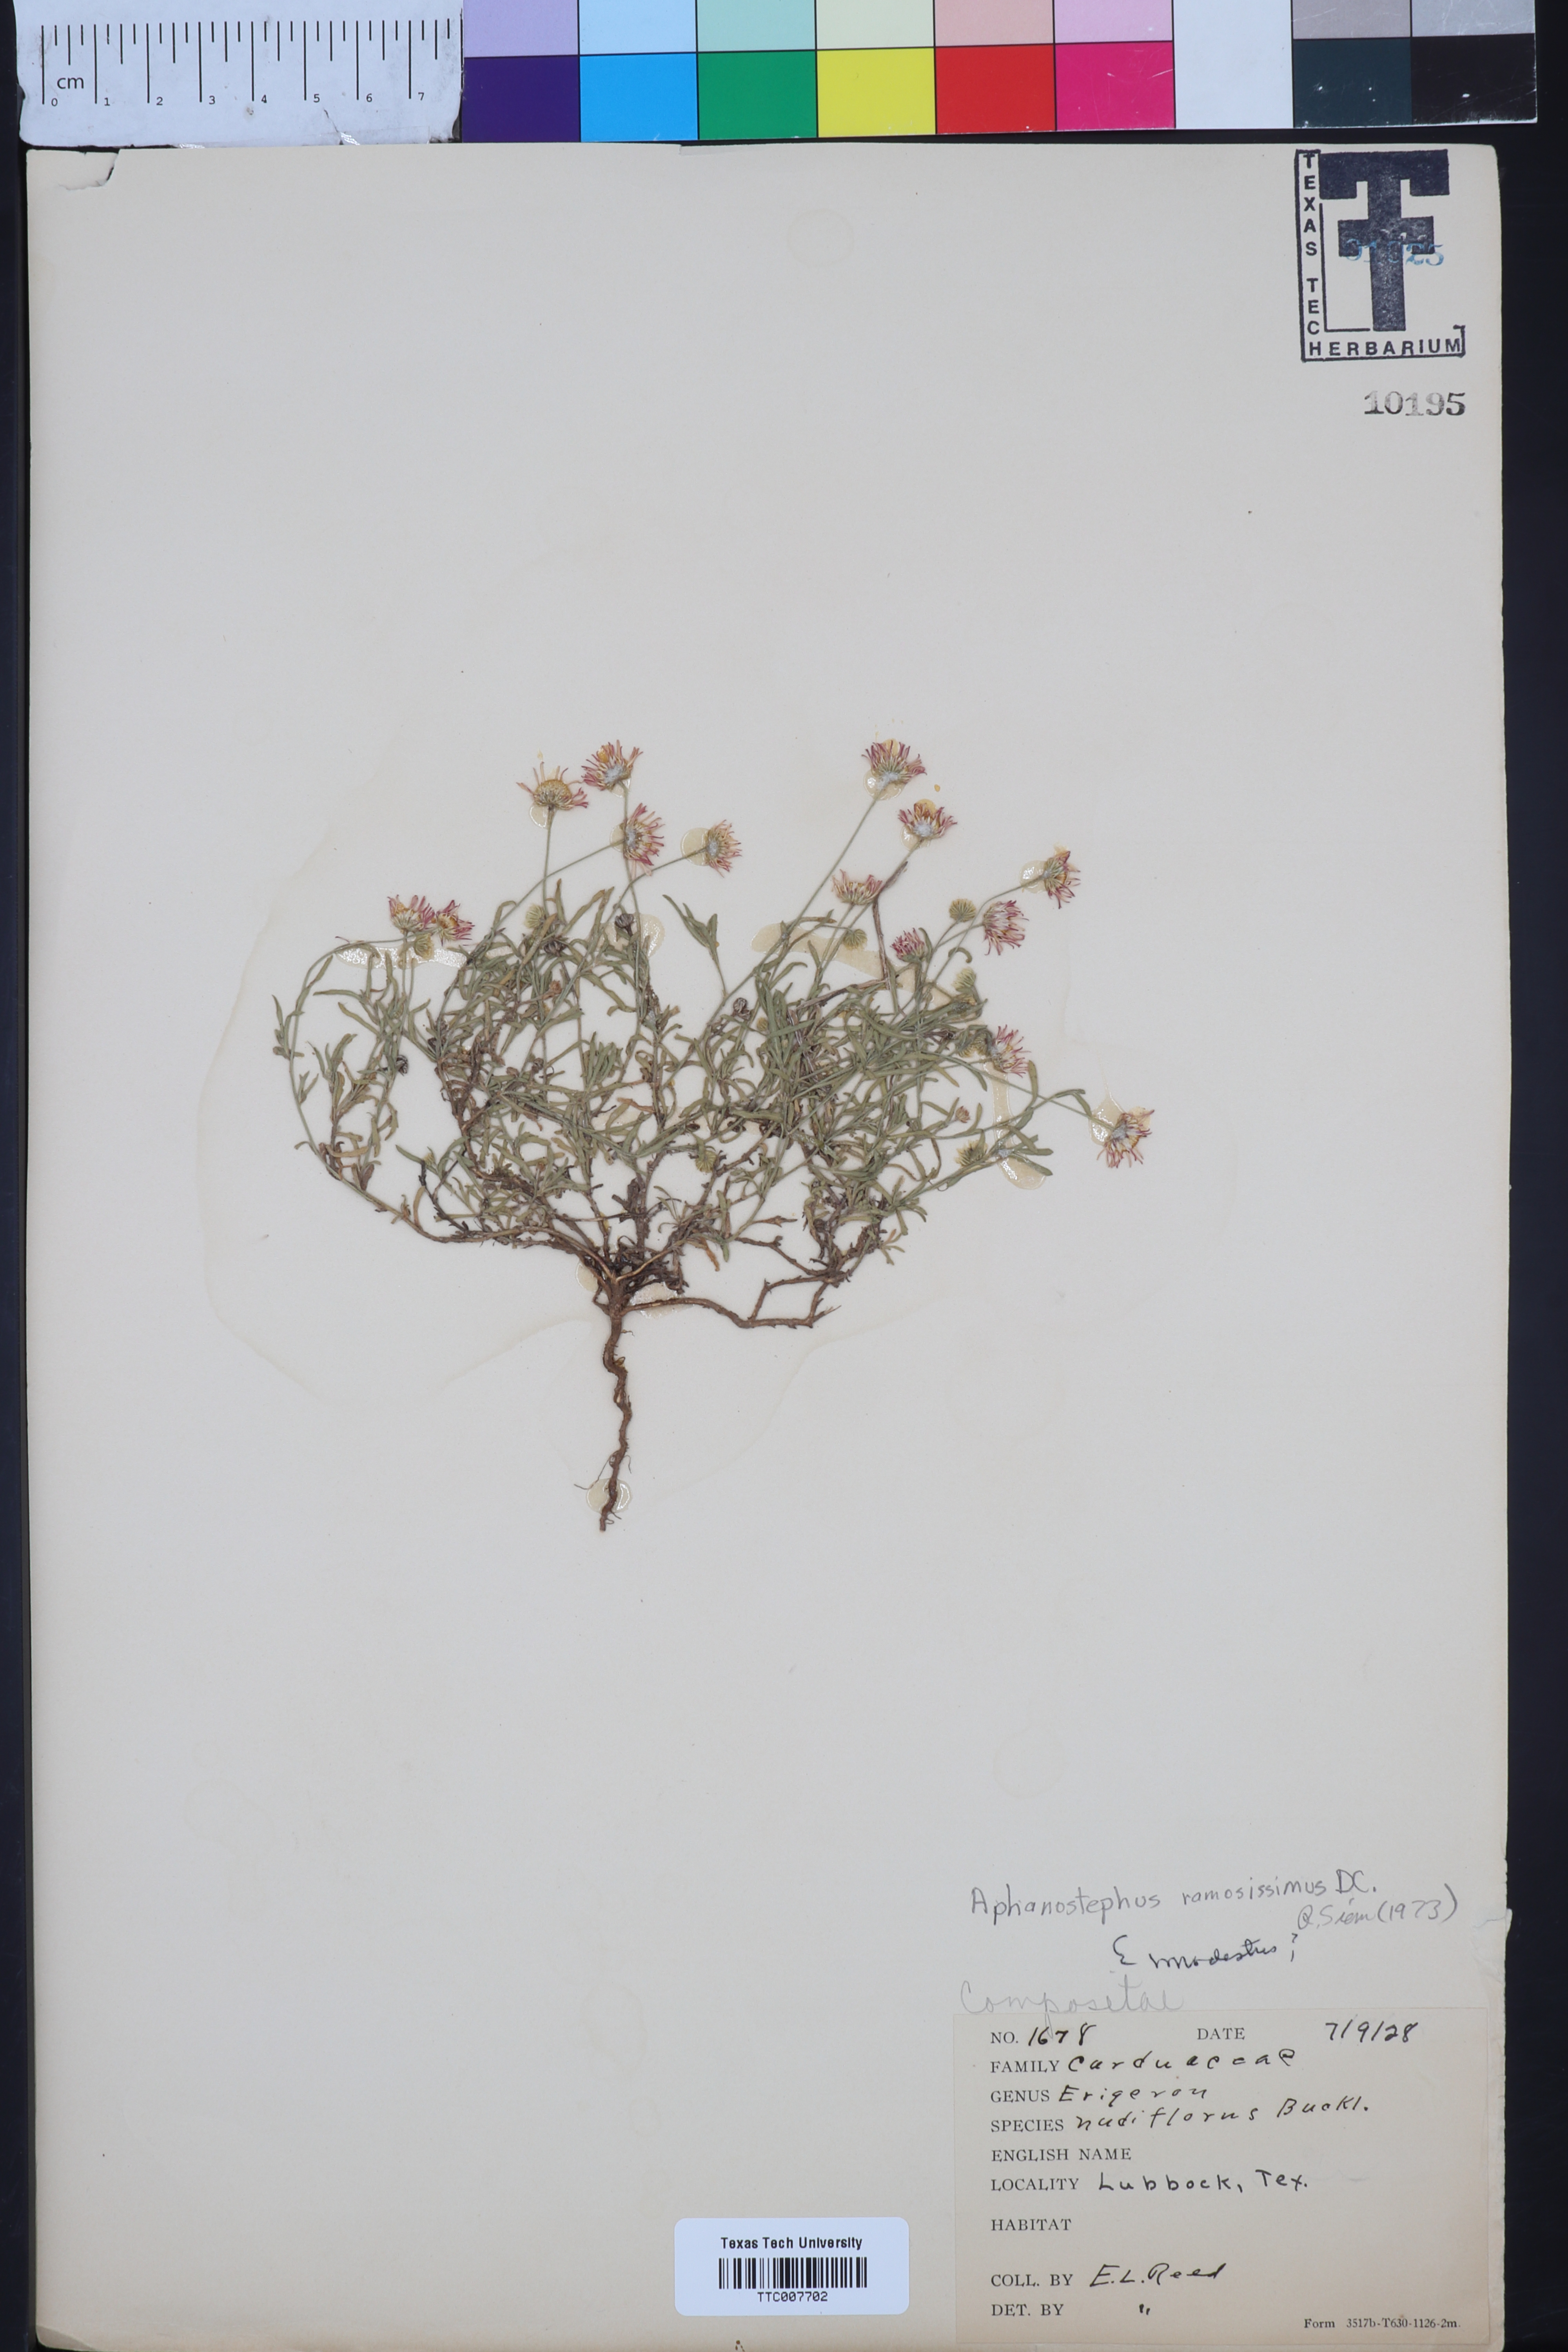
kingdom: Plantae
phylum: Tracheophyta
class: Magnoliopsida
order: Asterales
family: Asteraceae
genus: Aphanostephus
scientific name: Aphanostephus ramosissimus
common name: Plains lazy daisy
